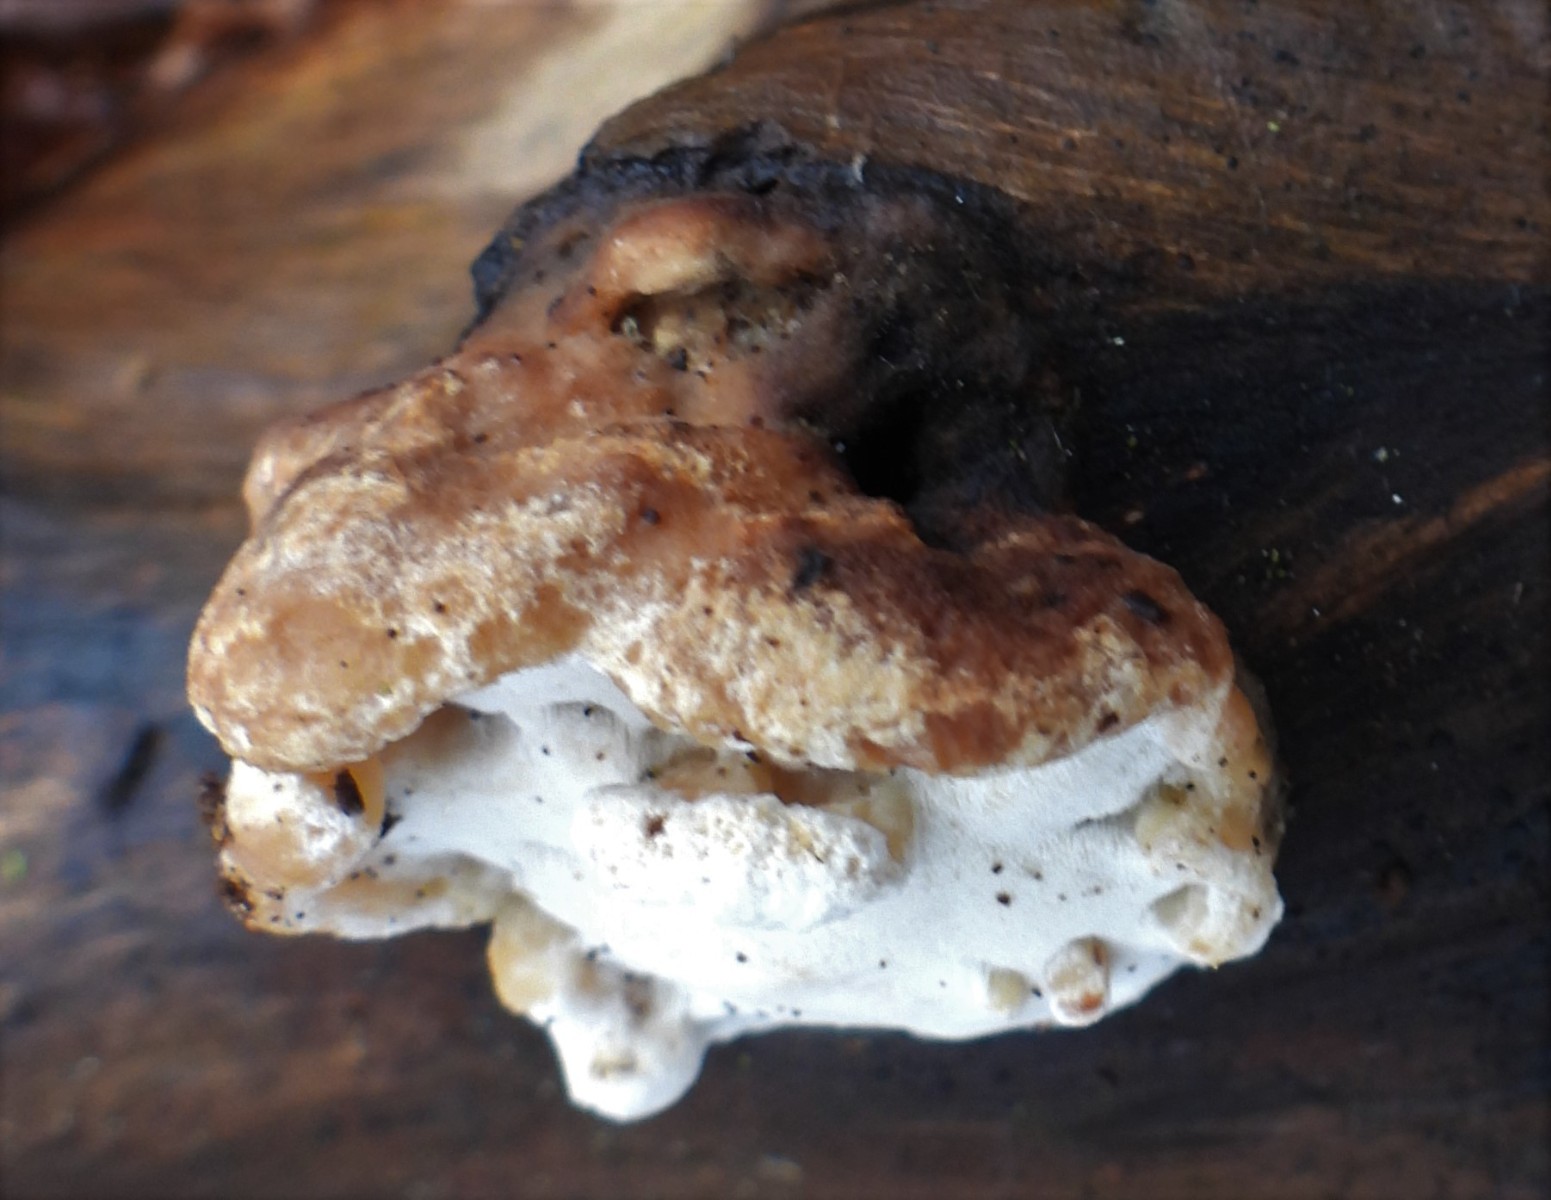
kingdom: Fungi
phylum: Basidiomycota
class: Agaricomycetes
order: Polyporales
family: Incrustoporiaceae
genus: Skeletocutis
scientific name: Skeletocutis nemoralis
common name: stor krystalporesvamp
